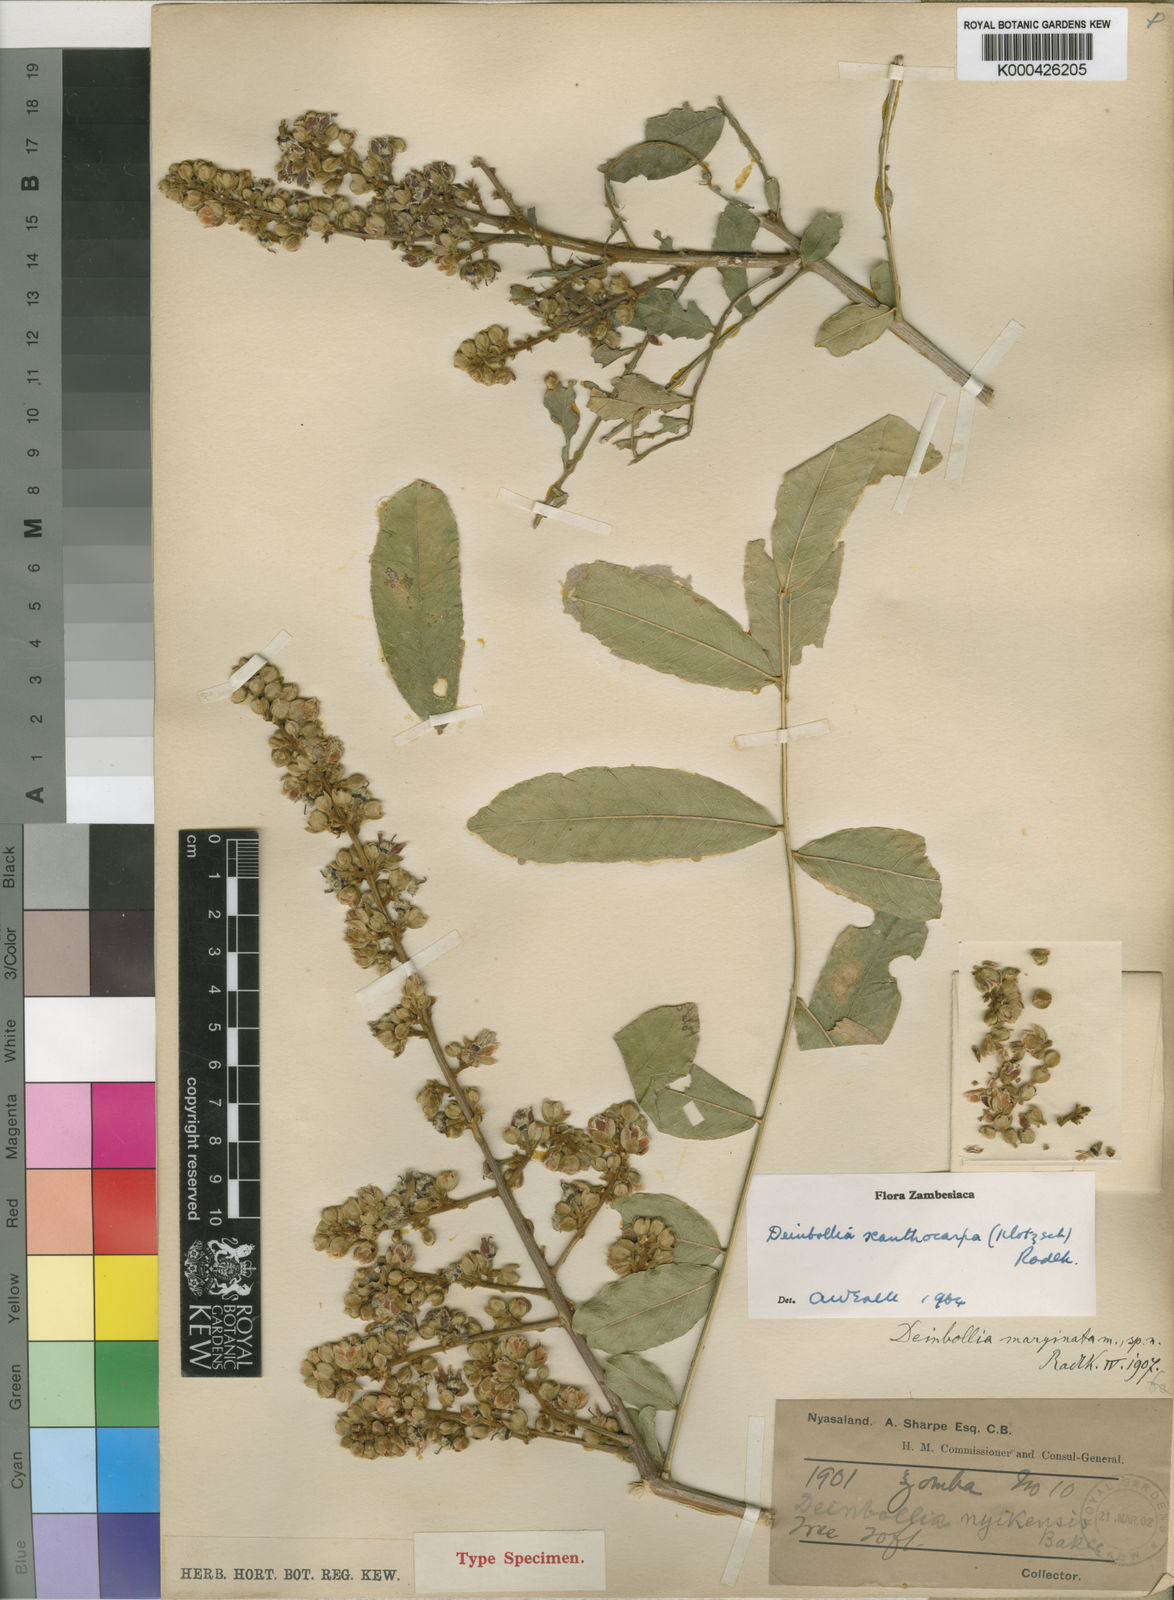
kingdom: Plantae
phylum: Tracheophyta
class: Magnoliopsida
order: Sapindales
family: Sapindaceae
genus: Deinbollia
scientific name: Deinbollia xanthocarpa
